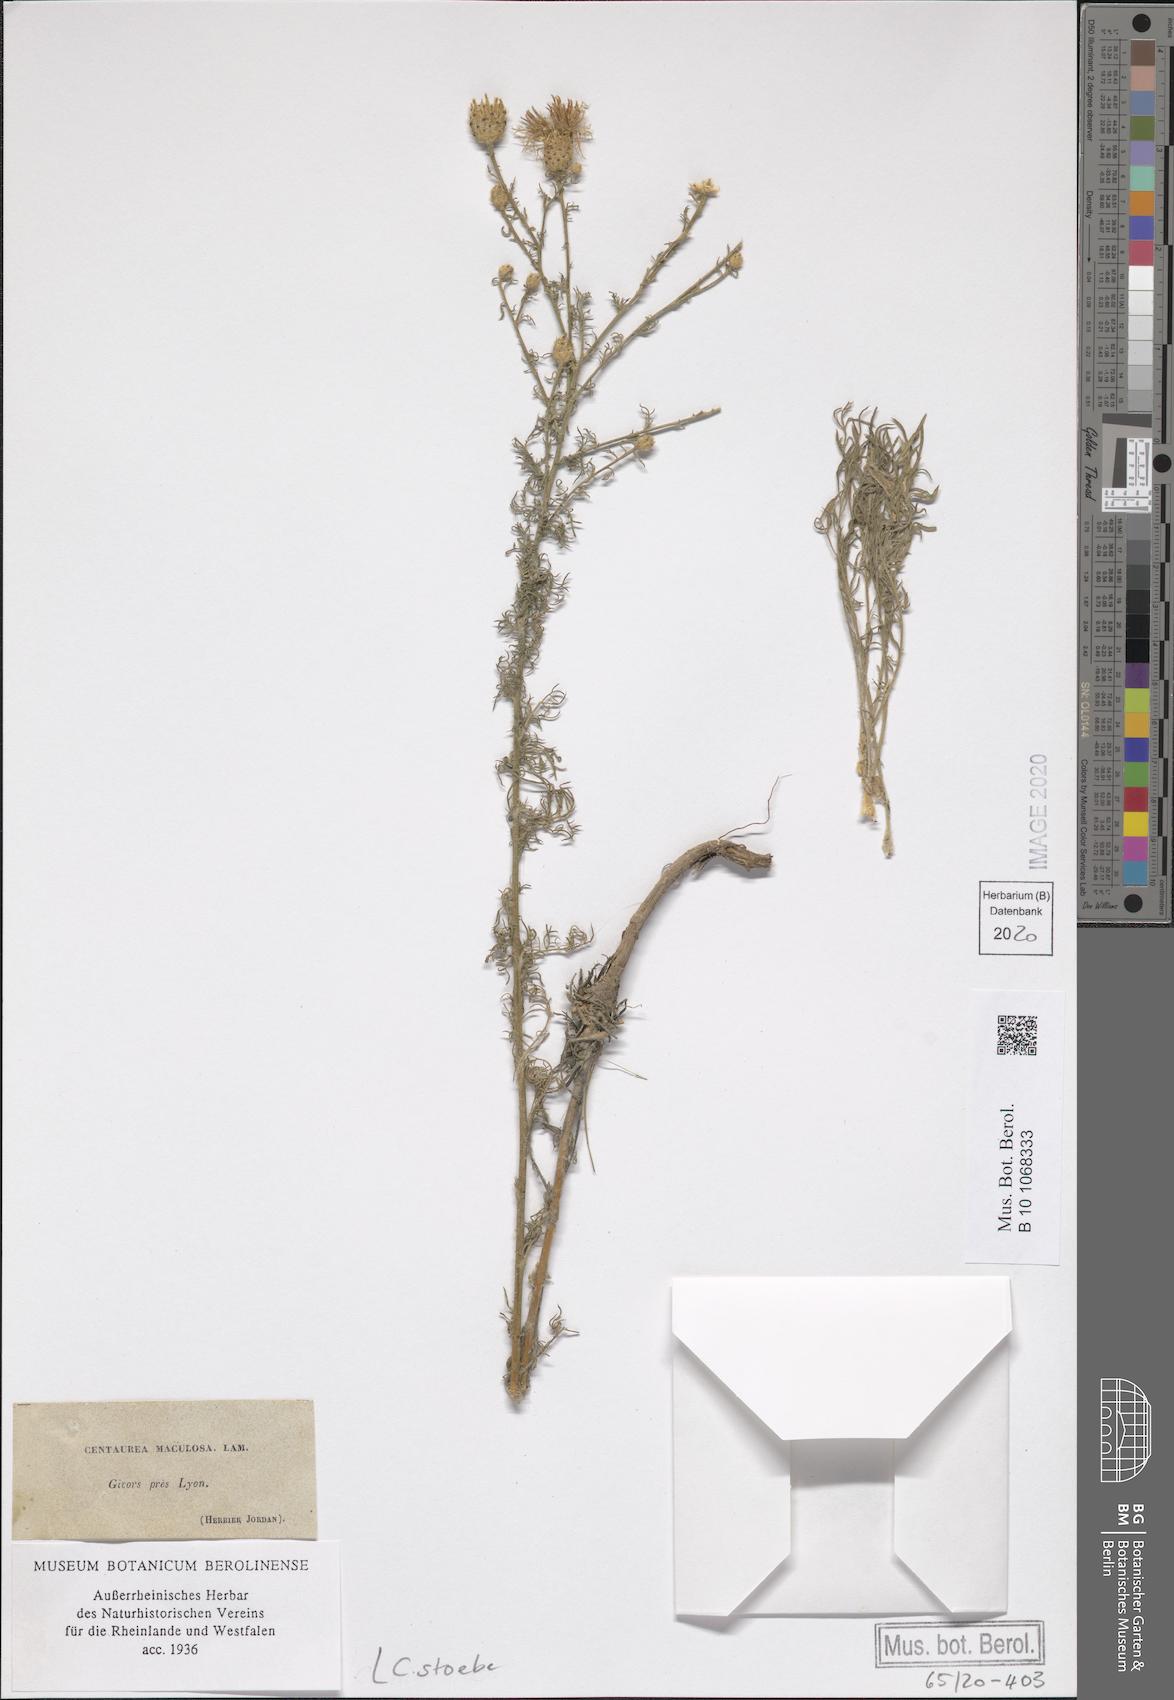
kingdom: Plantae
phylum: Tracheophyta
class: Magnoliopsida
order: Asterales
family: Asteraceae
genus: Centaurea
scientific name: Centaurea stoebe
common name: Spotted knapweed
